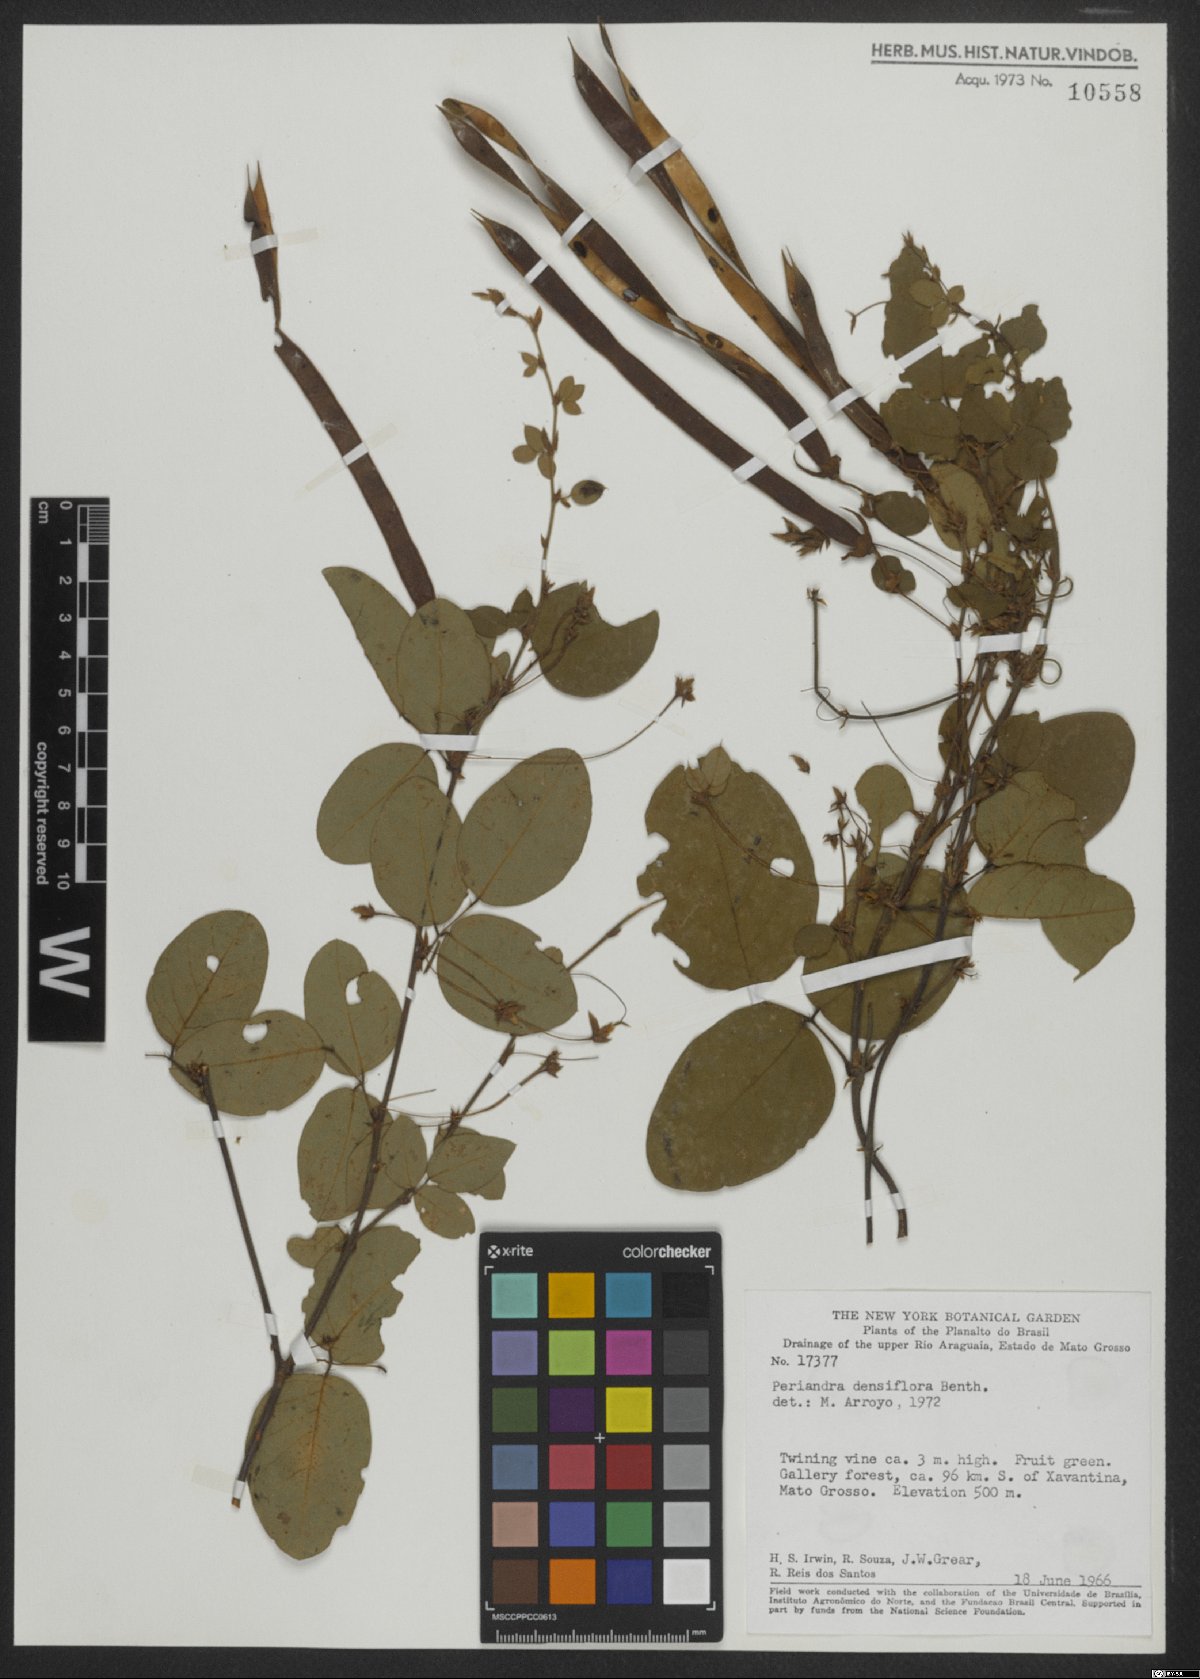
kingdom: Plantae
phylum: Tracheophyta
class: Magnoliopsida
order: Fabales
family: Fabaceae
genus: Periandra
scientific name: Periandra densiflora
